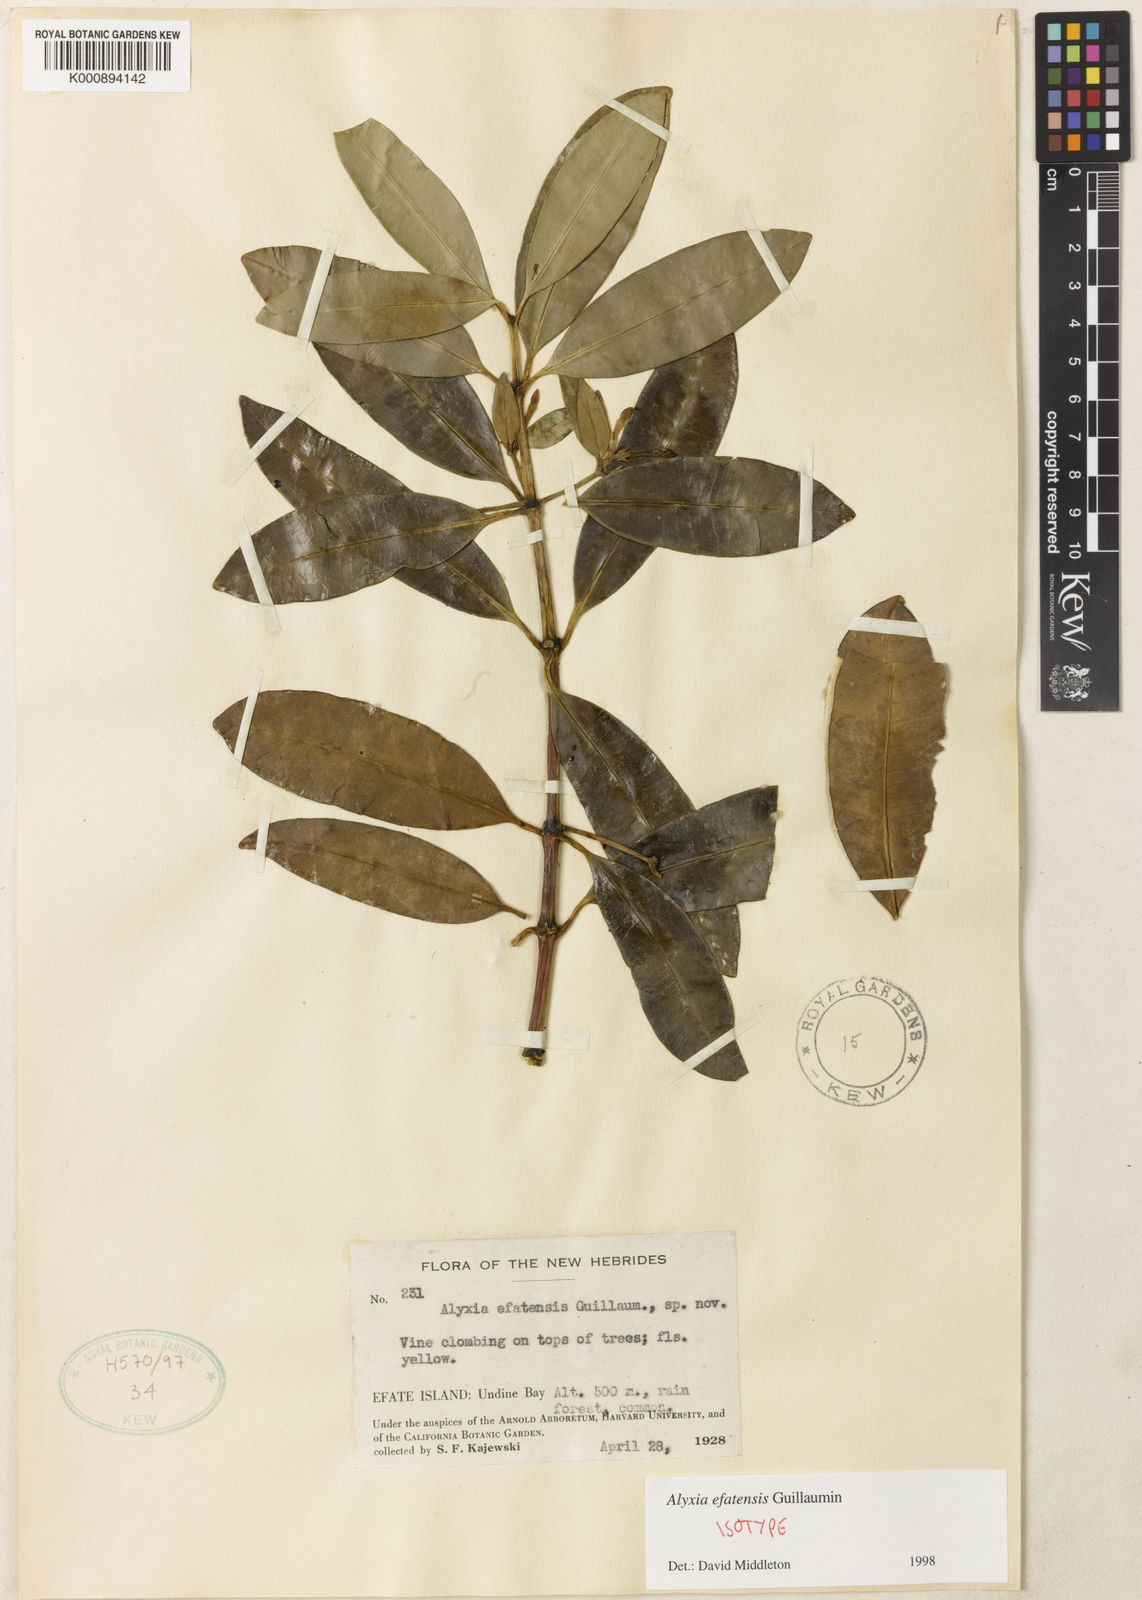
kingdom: Plantae
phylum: Tracheophyta
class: Magnoliopsida
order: Gentianales
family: Apocynaceae
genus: Alyxia
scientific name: Alyxia efatensis
